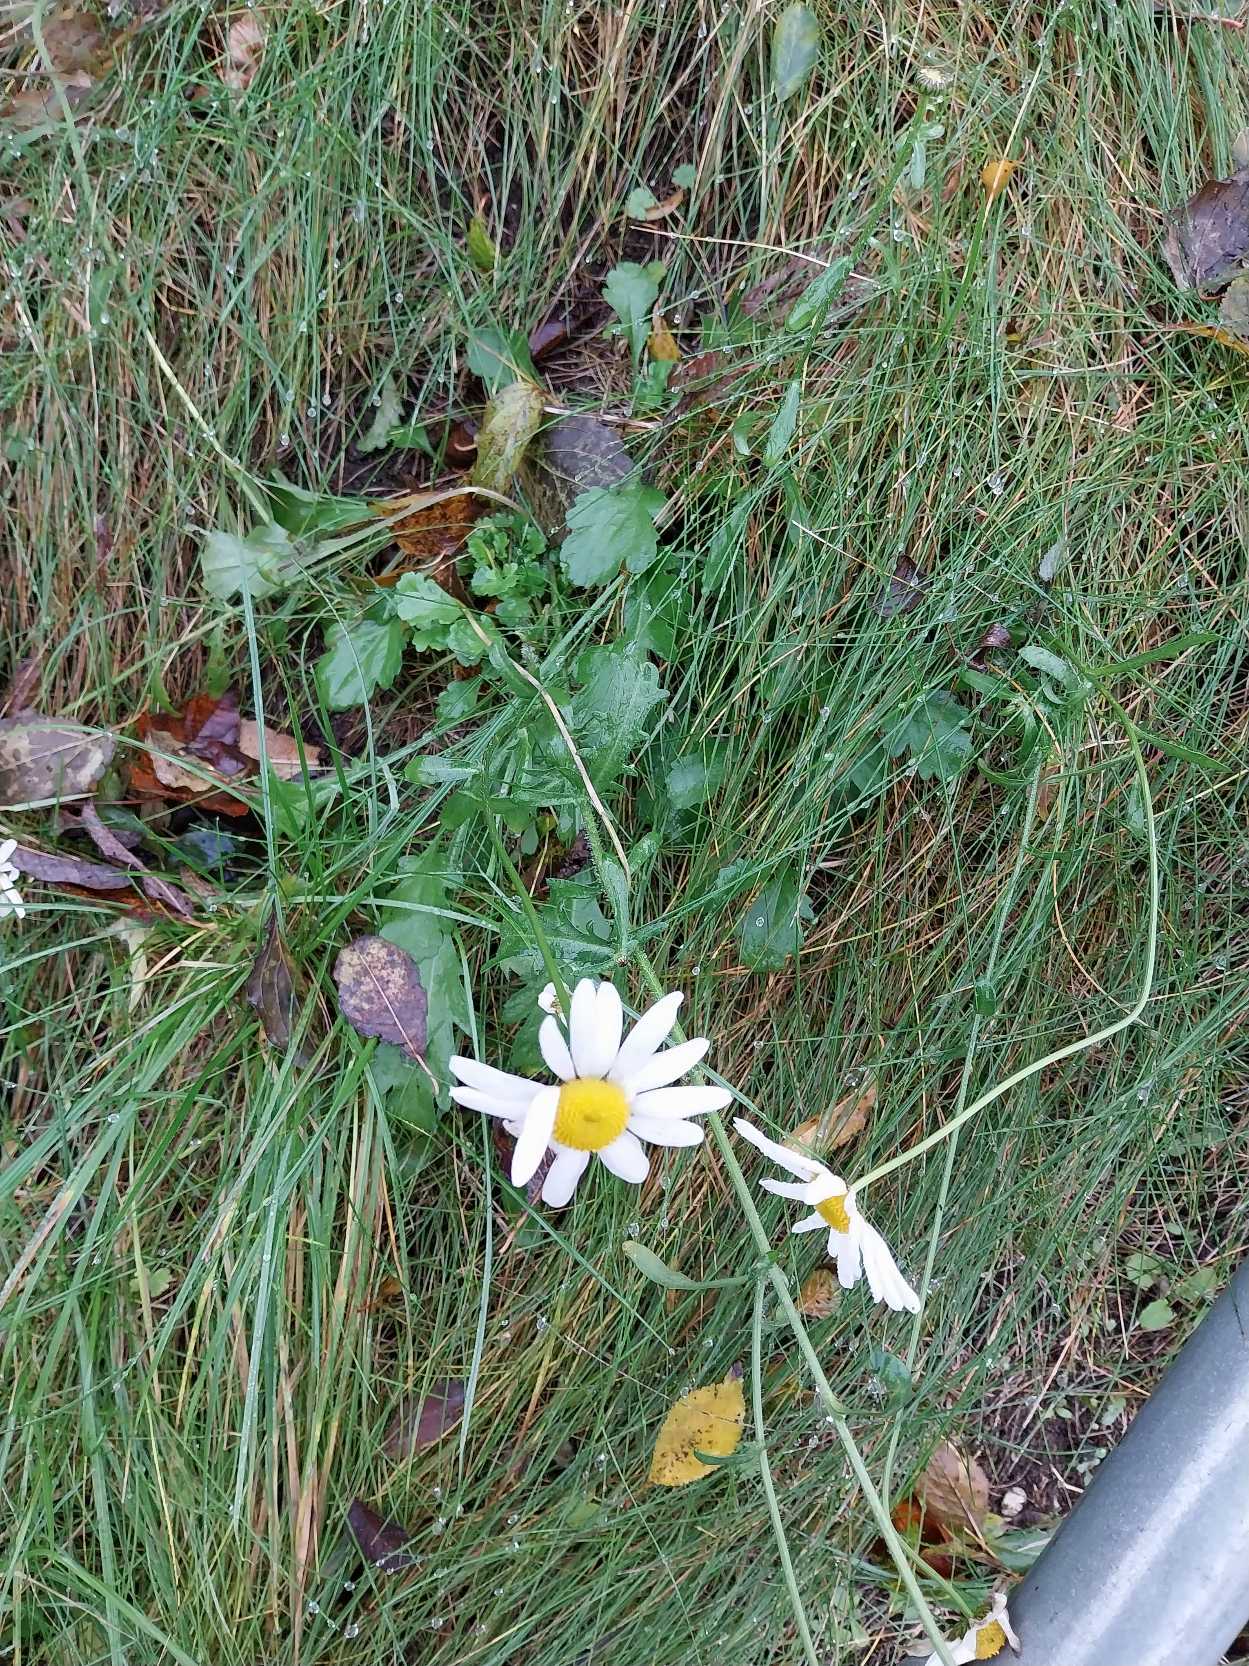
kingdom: Plantae
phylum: Tracheophyta
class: Magnoliopsida
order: Asterales
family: Asteraceae
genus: Leucanthemum
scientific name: Leucanthemum vulgare
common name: Hvid okseøje
